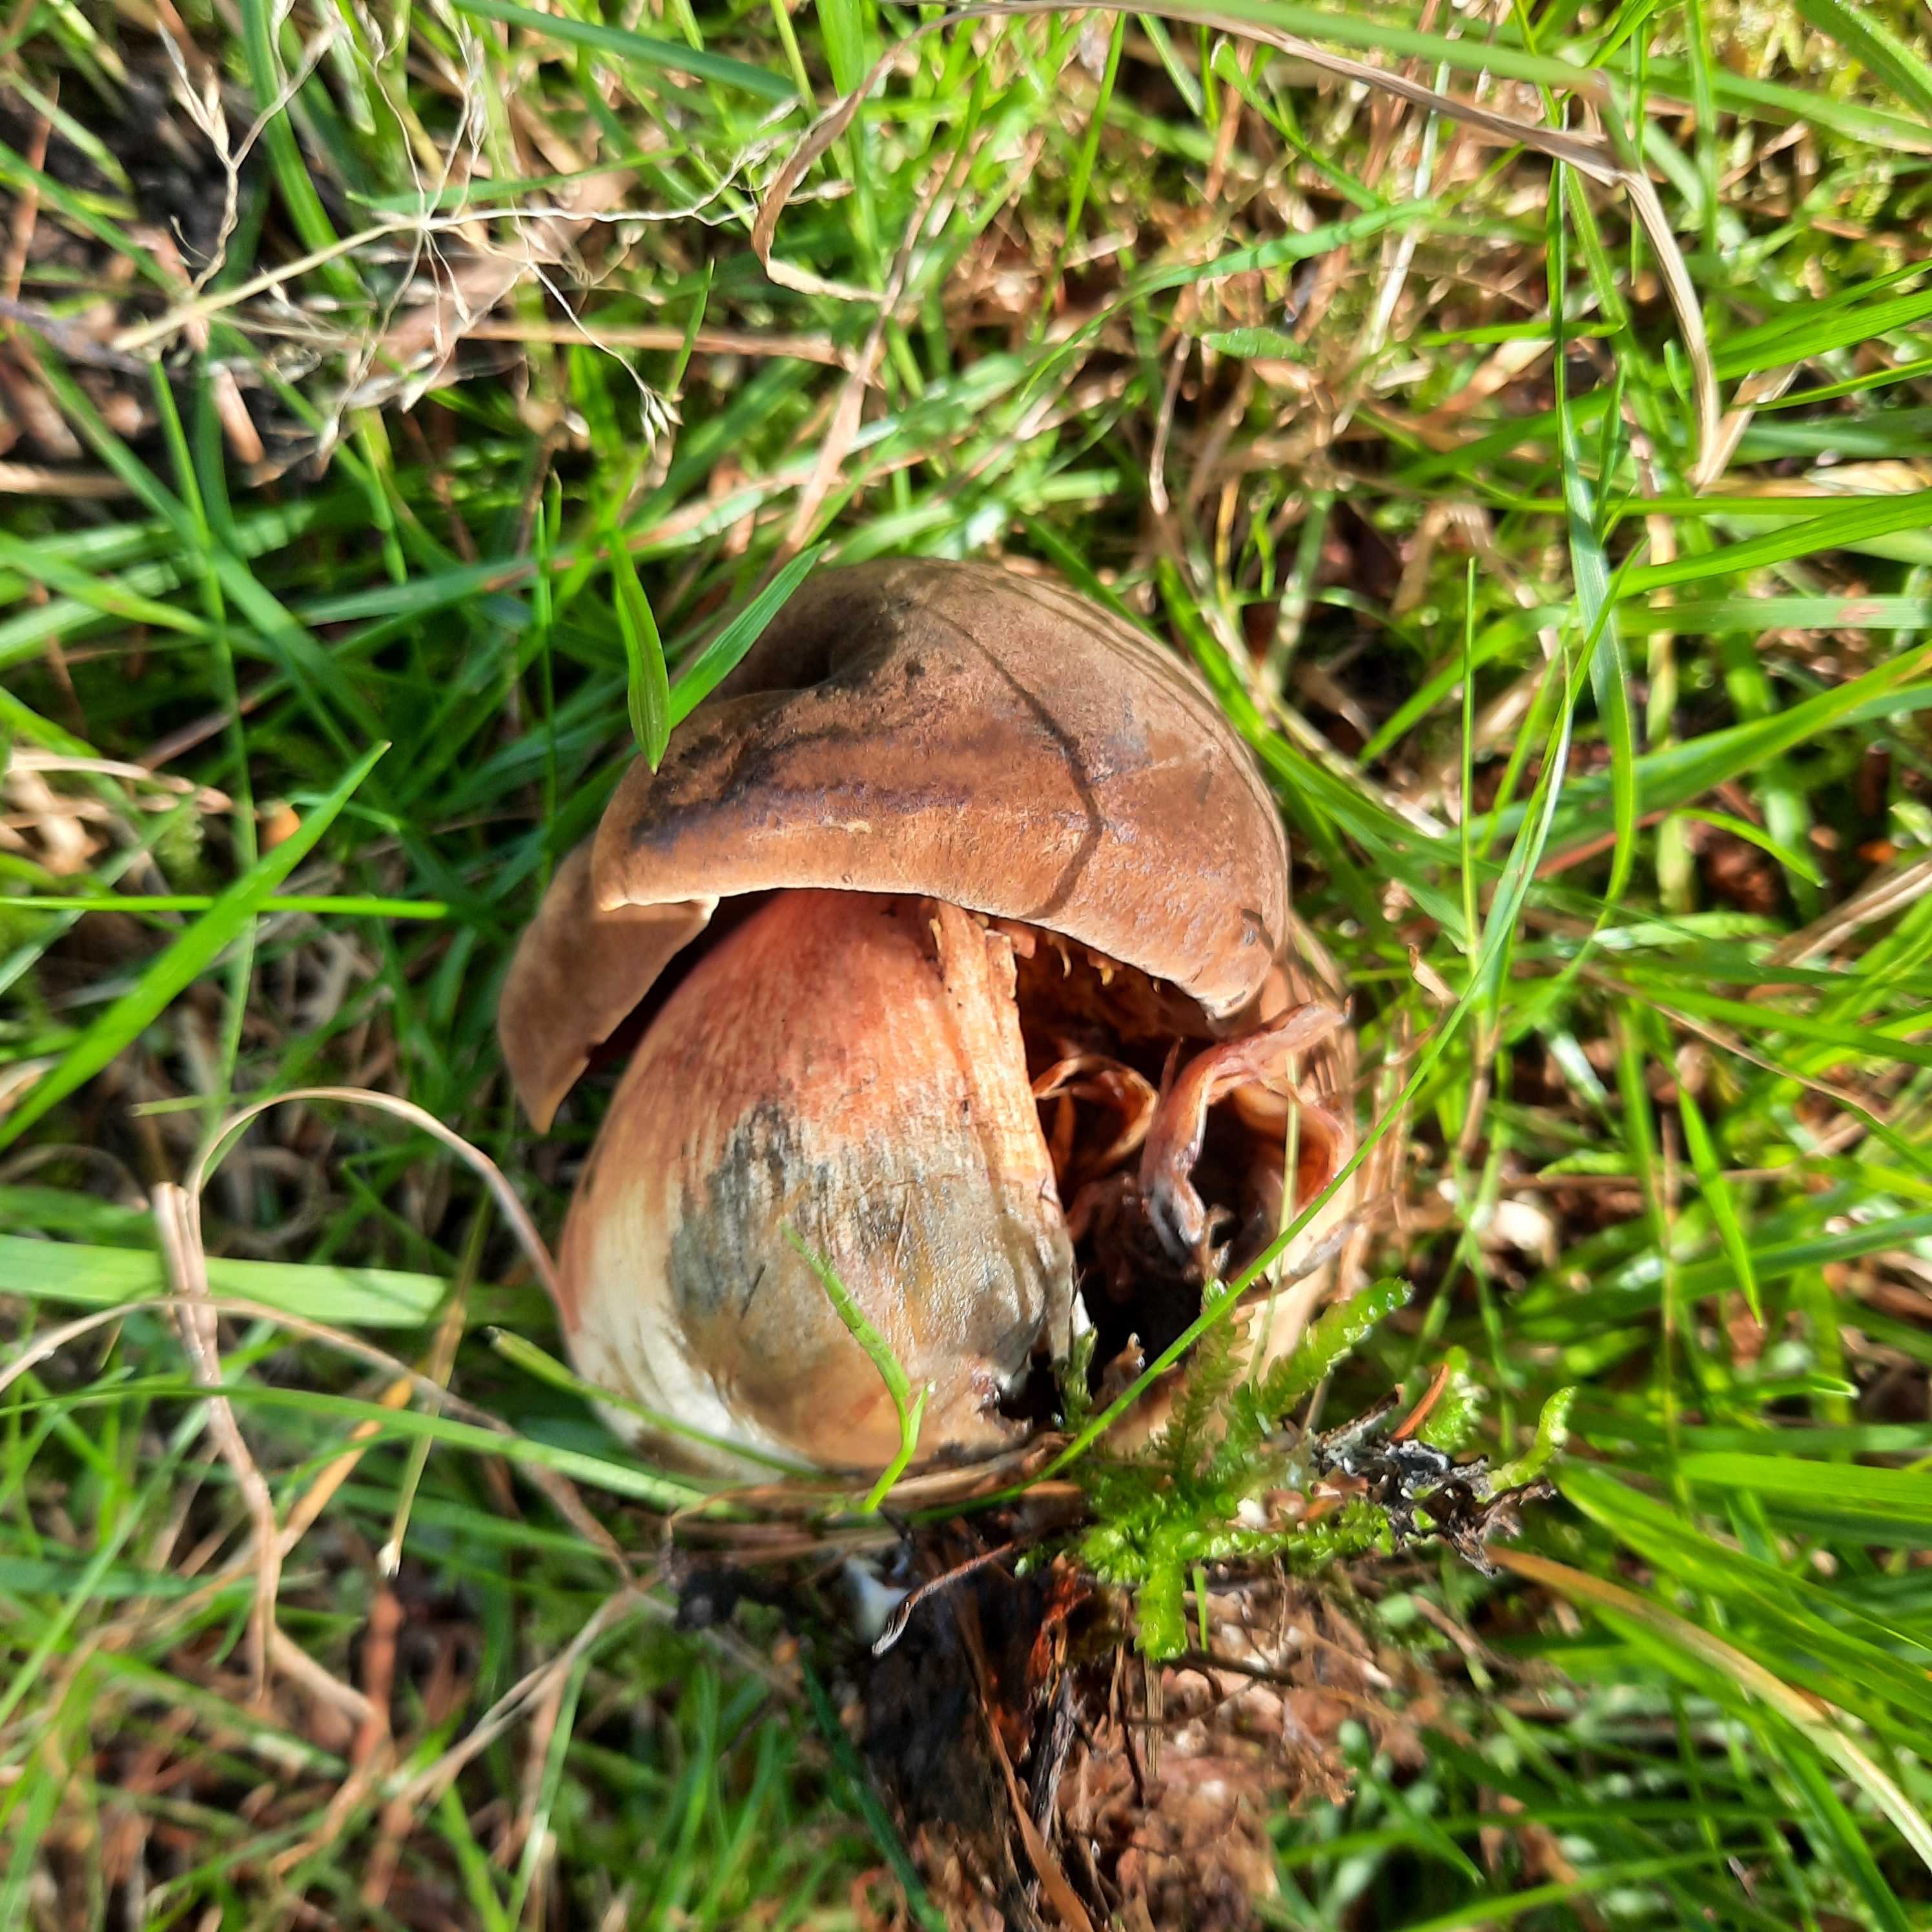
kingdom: Fungi
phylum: Basidiomycota
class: Agaricomycetes
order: Boletales
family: Boletaceae
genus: Neoboletus
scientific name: Neoboletus erythropus
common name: punktstokket indigorørhat
